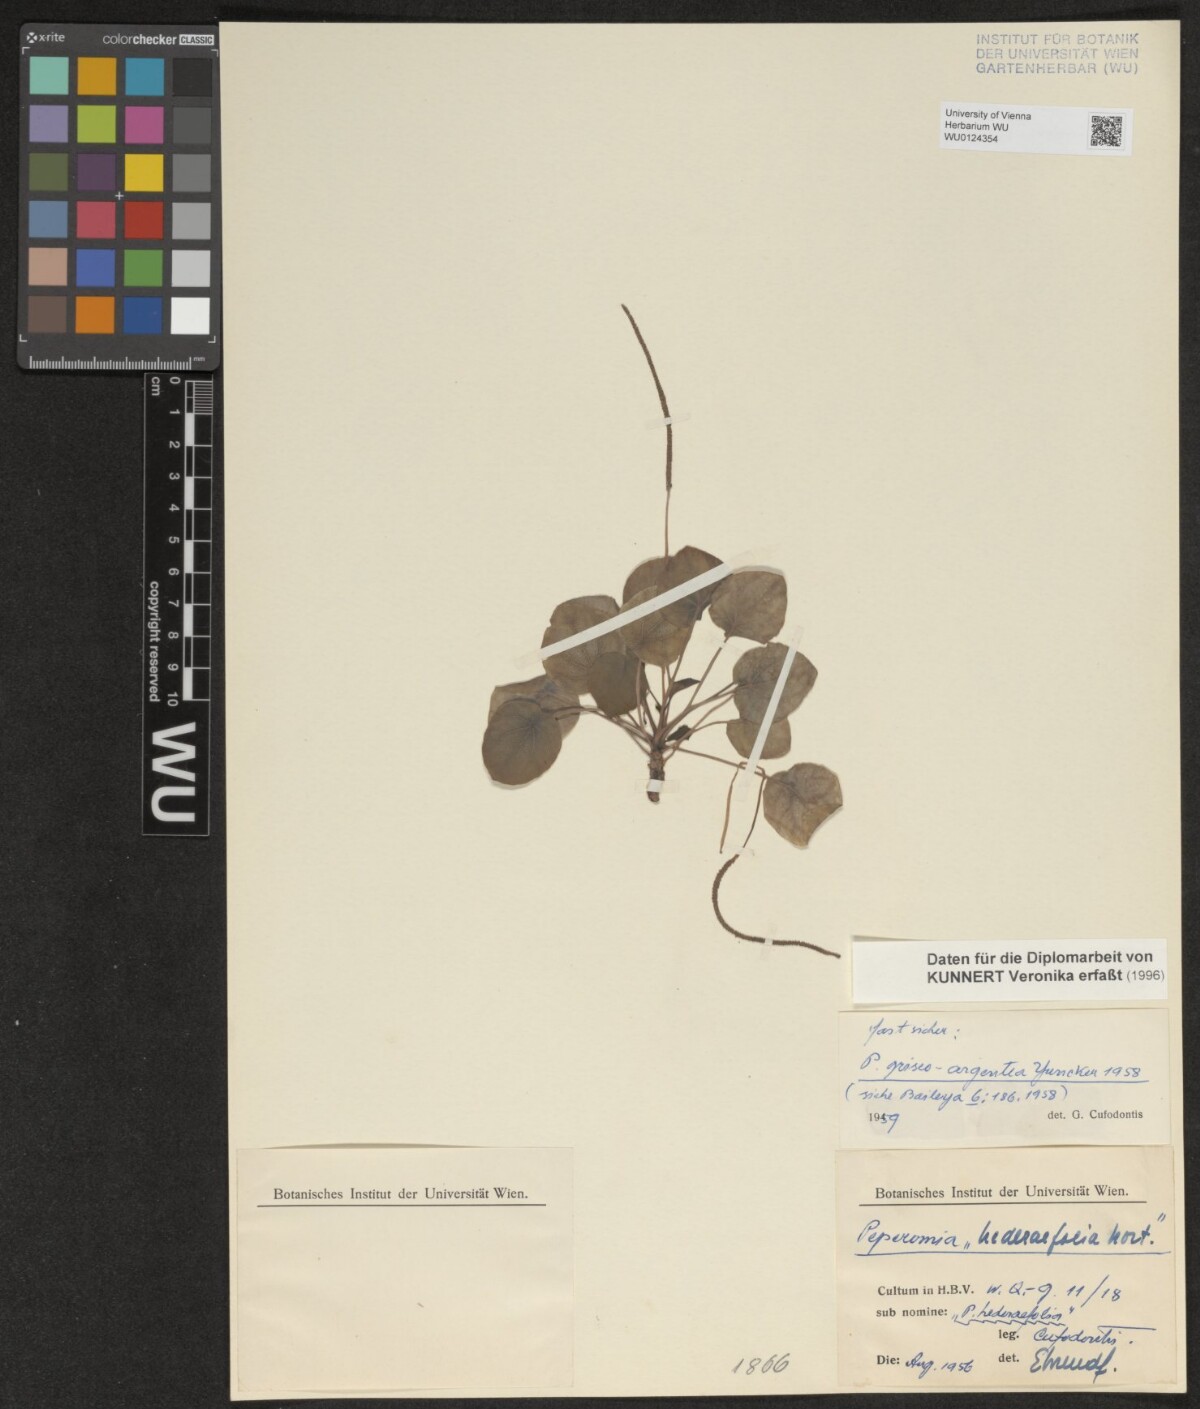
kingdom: Plantae
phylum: Tracheophyta
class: Magnoliopsida
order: Piperales
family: Piperaceae
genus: Peperomia
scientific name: Peperomia griseoargentea
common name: Platinum pepper
